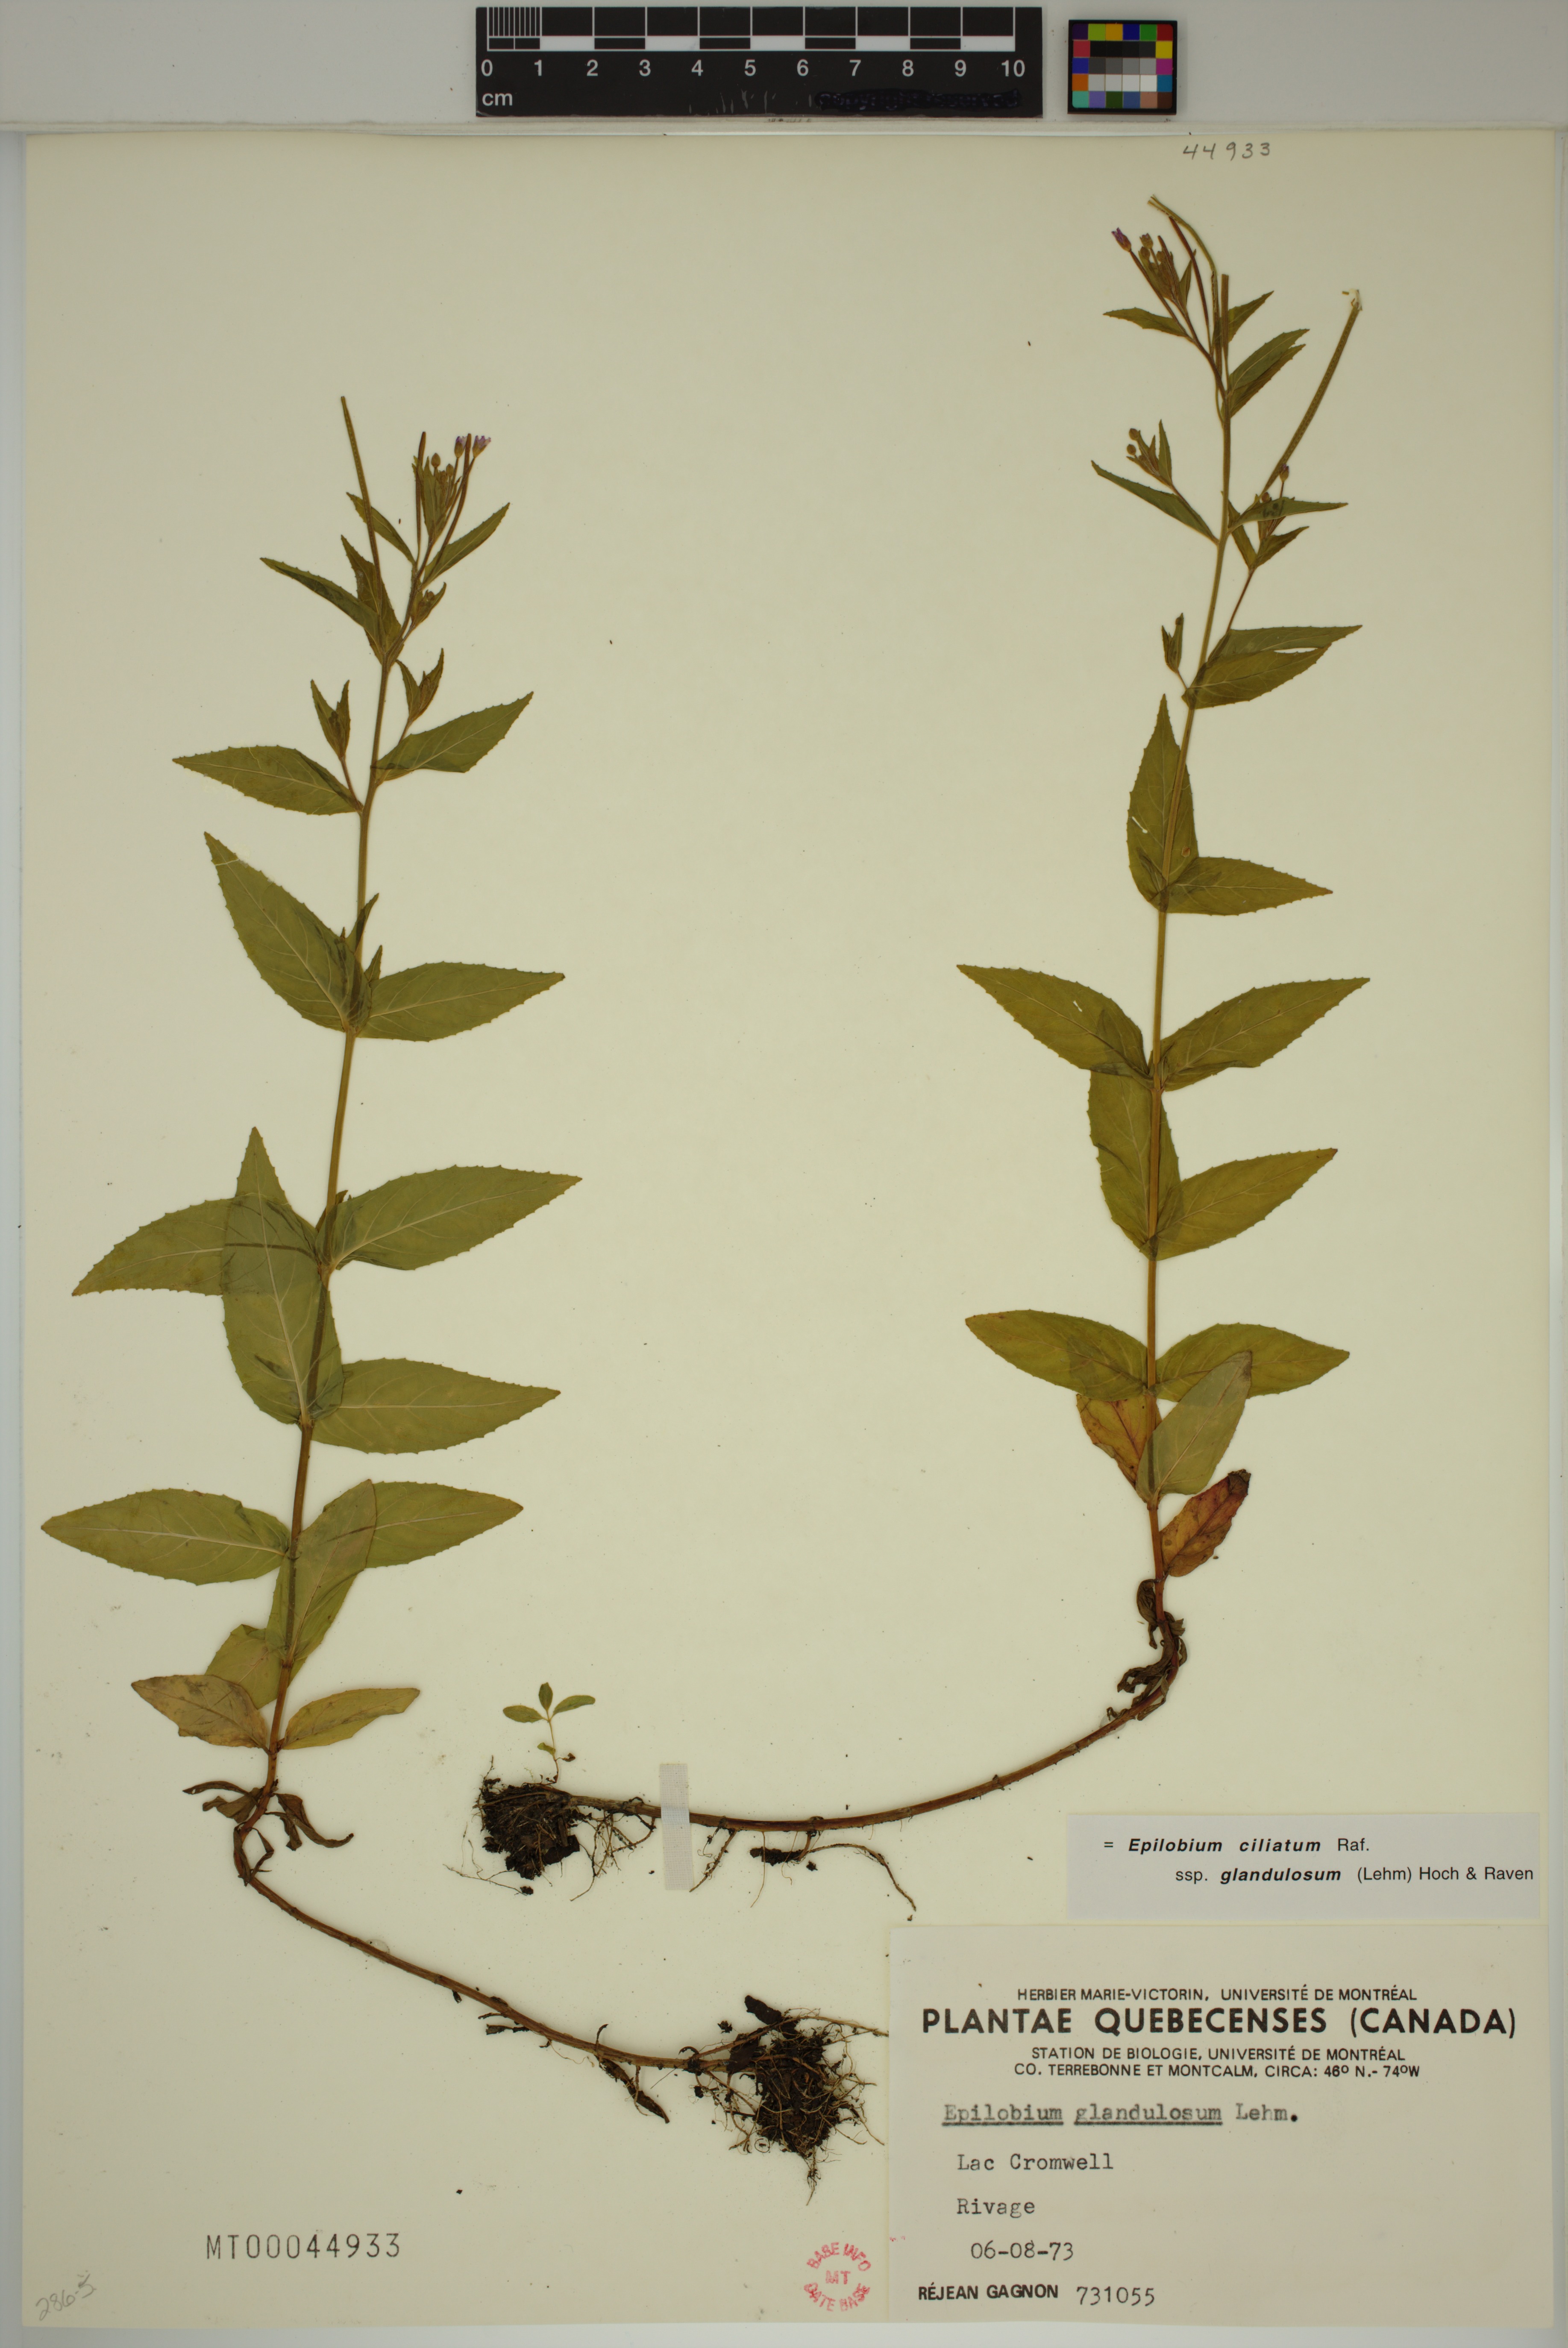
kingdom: Plantae
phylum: Tracheophyta
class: Magnoliopsida
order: Myrtales
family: Onagraceae
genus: Epilobium
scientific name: Epilobium ciliatum
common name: American willowherb
